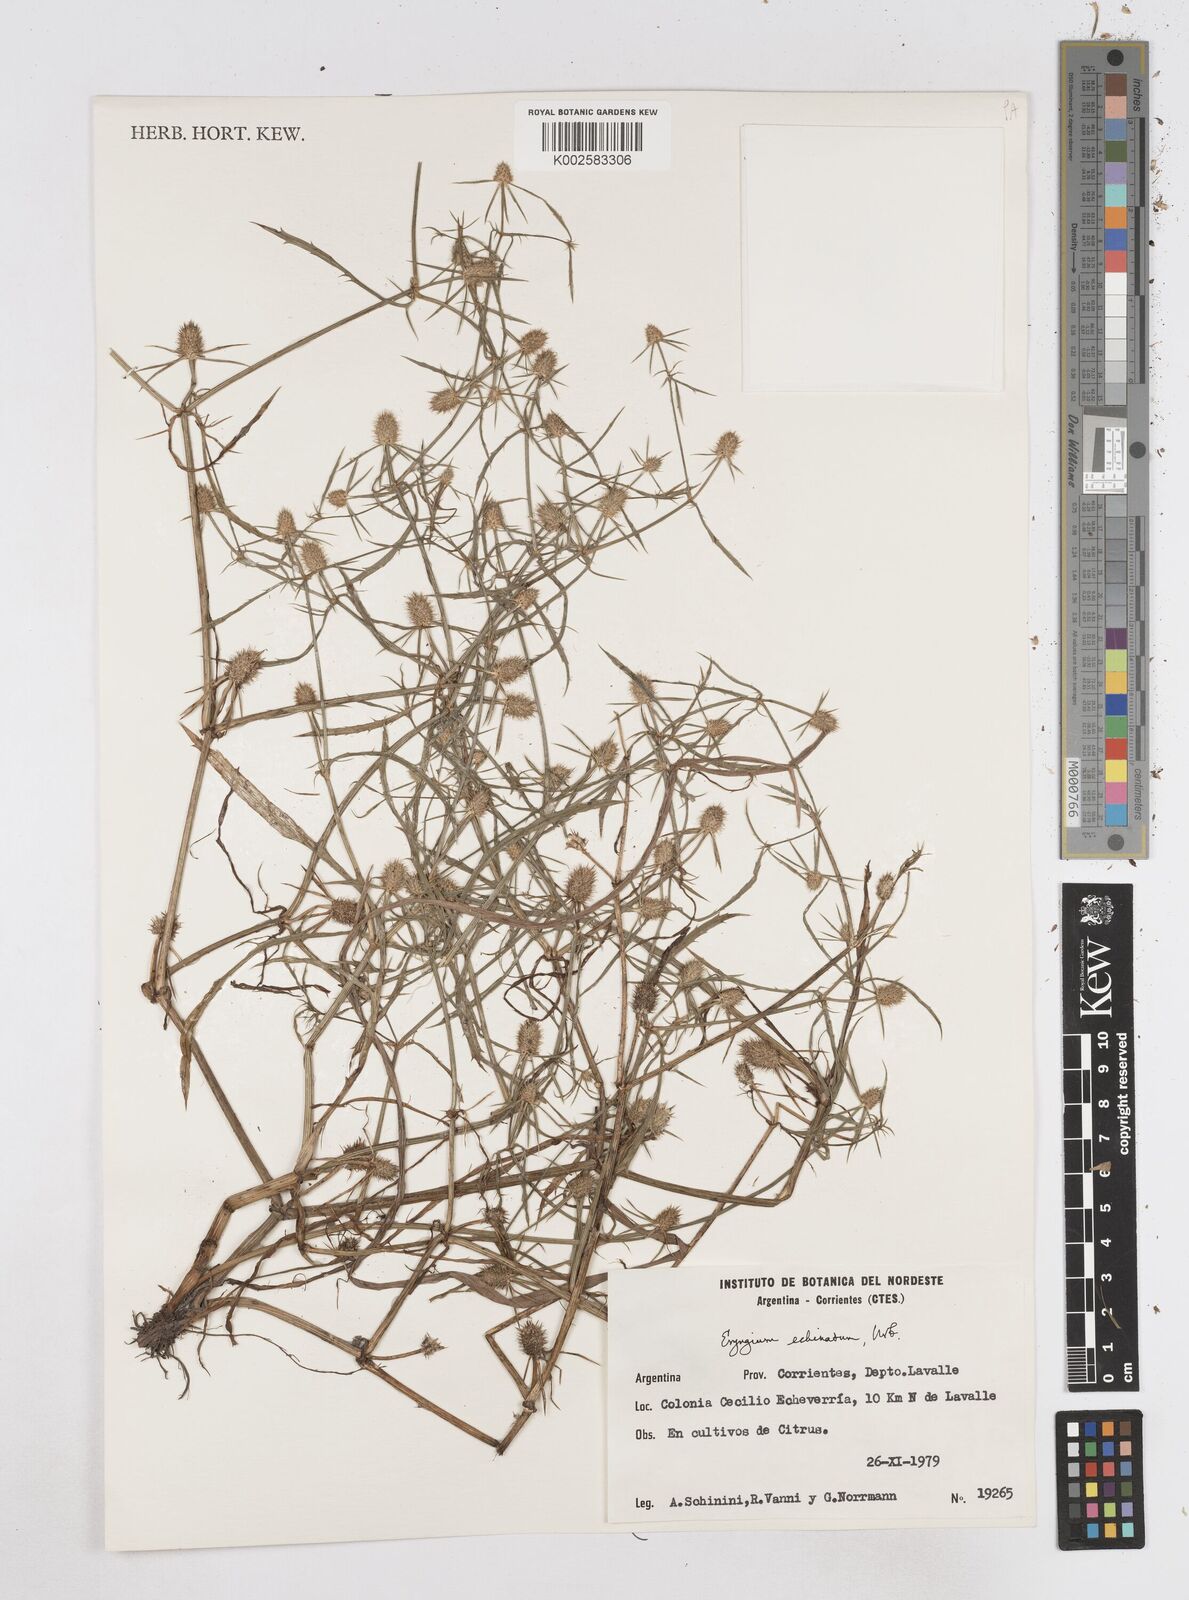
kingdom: Plantae
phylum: Tracheophyta
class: Magnoliopsida
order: Apiales
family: Apiaceae
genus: Eryngium
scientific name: Eryngium echinatum
